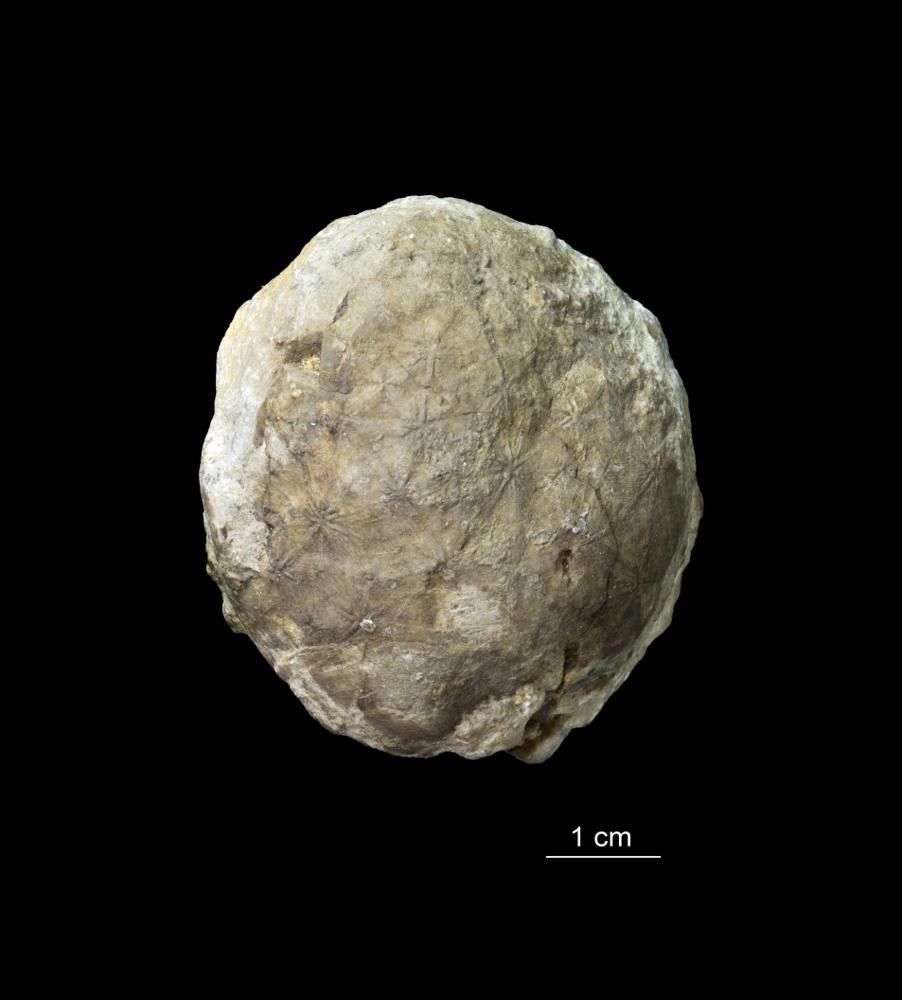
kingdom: Animalia
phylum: Echinodermata
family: Echinosphaeritidae
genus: Echinosphaerites
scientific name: Echinosphaerites Echinus aurantium
